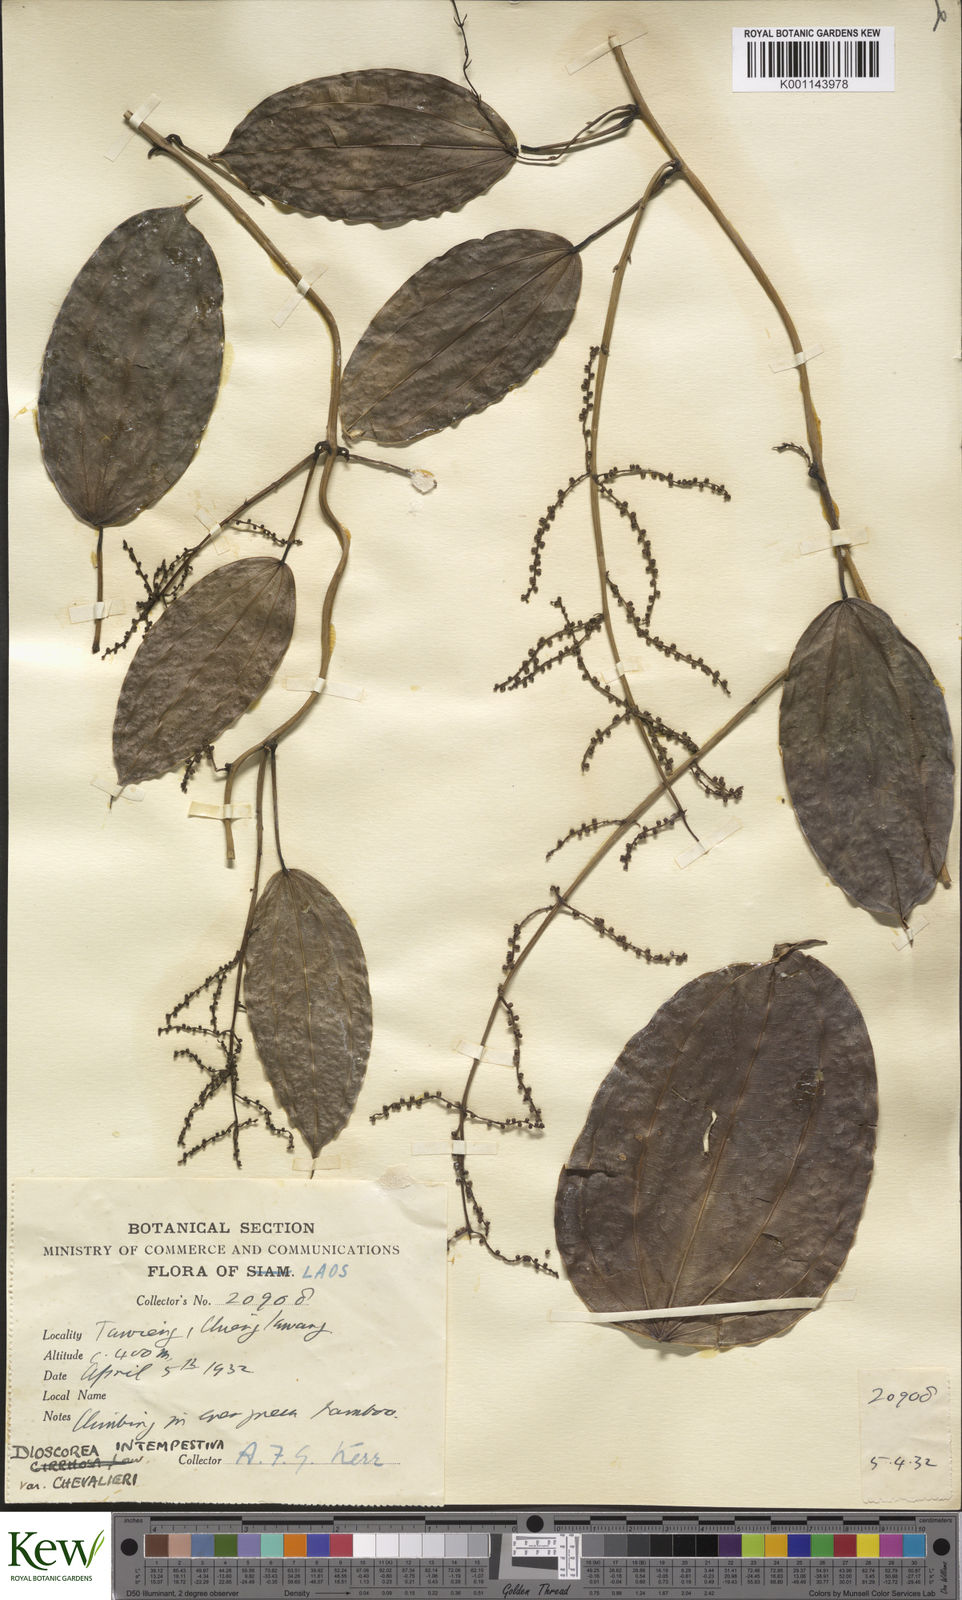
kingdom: Plantae
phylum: Tracheophyta
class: Liliopsida
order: Dioscoreales
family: Dioscoreaceae
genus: Dioscorea
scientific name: Dioscorea cirrhosa
